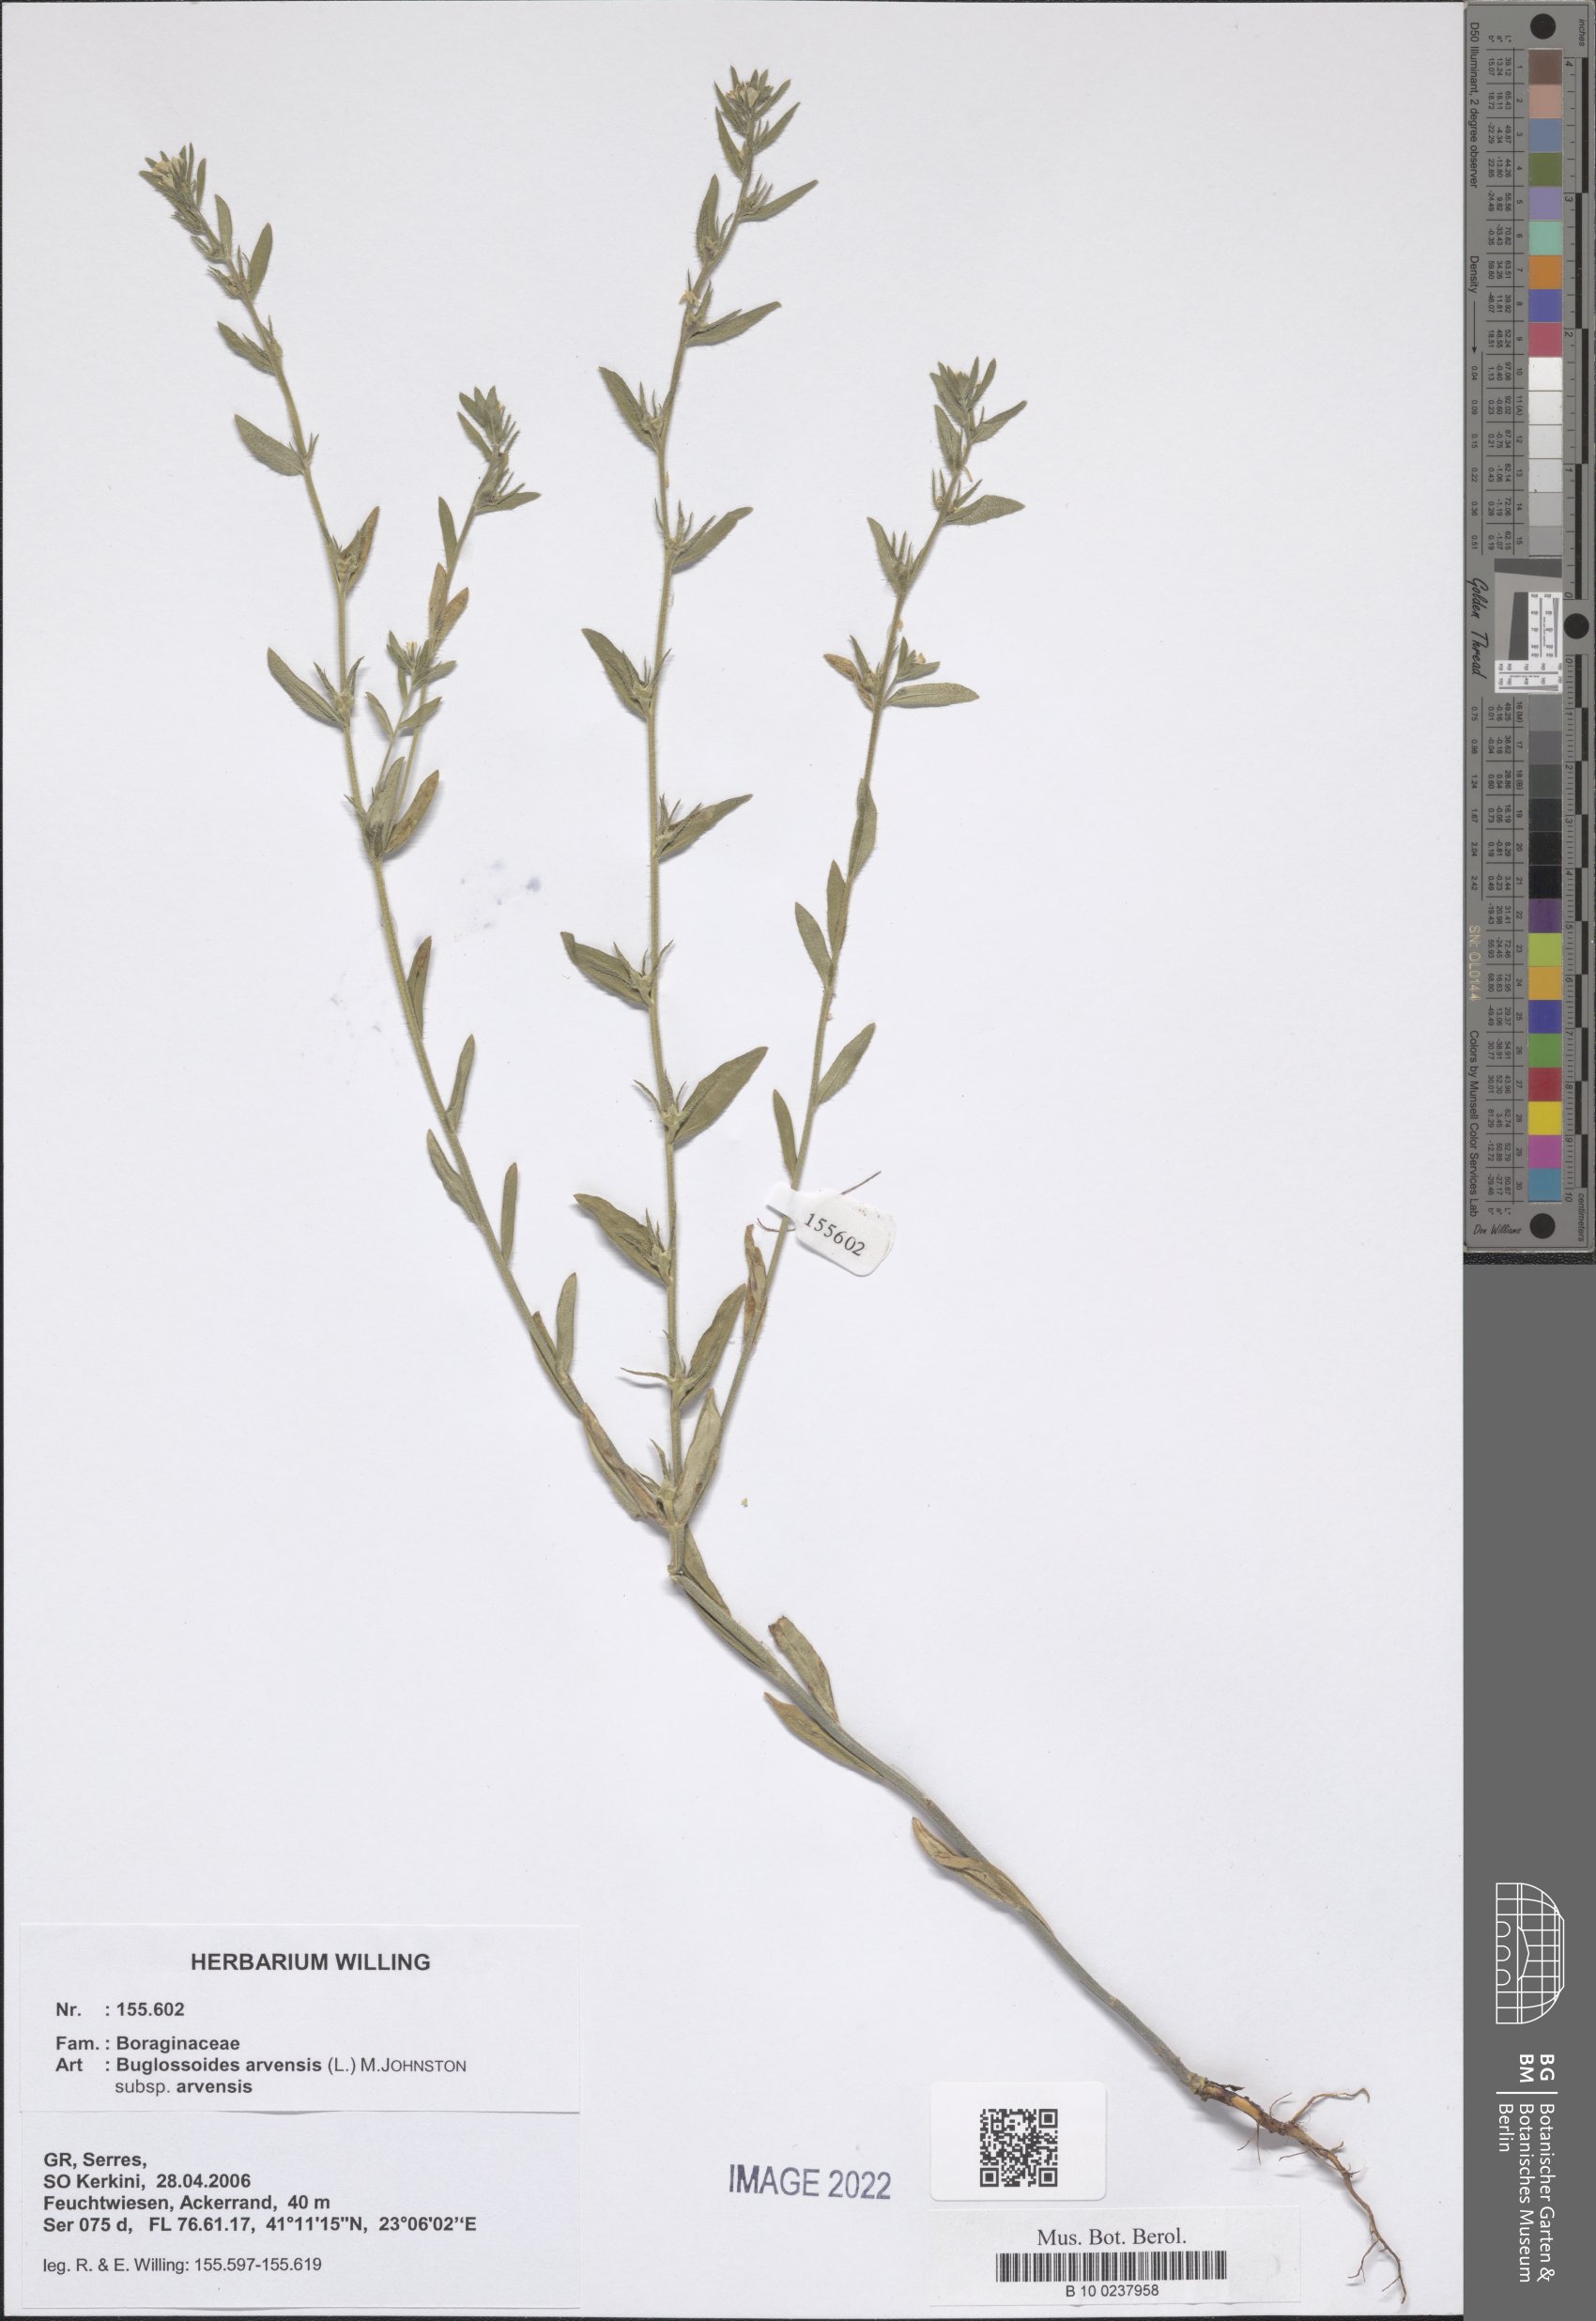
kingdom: Plantae
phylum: Tracheophyta
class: Magnoliopsida
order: Boraginales
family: Boraginaceae
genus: Buglossoides
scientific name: Buglossoides arvensis
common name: Corn gromwell
